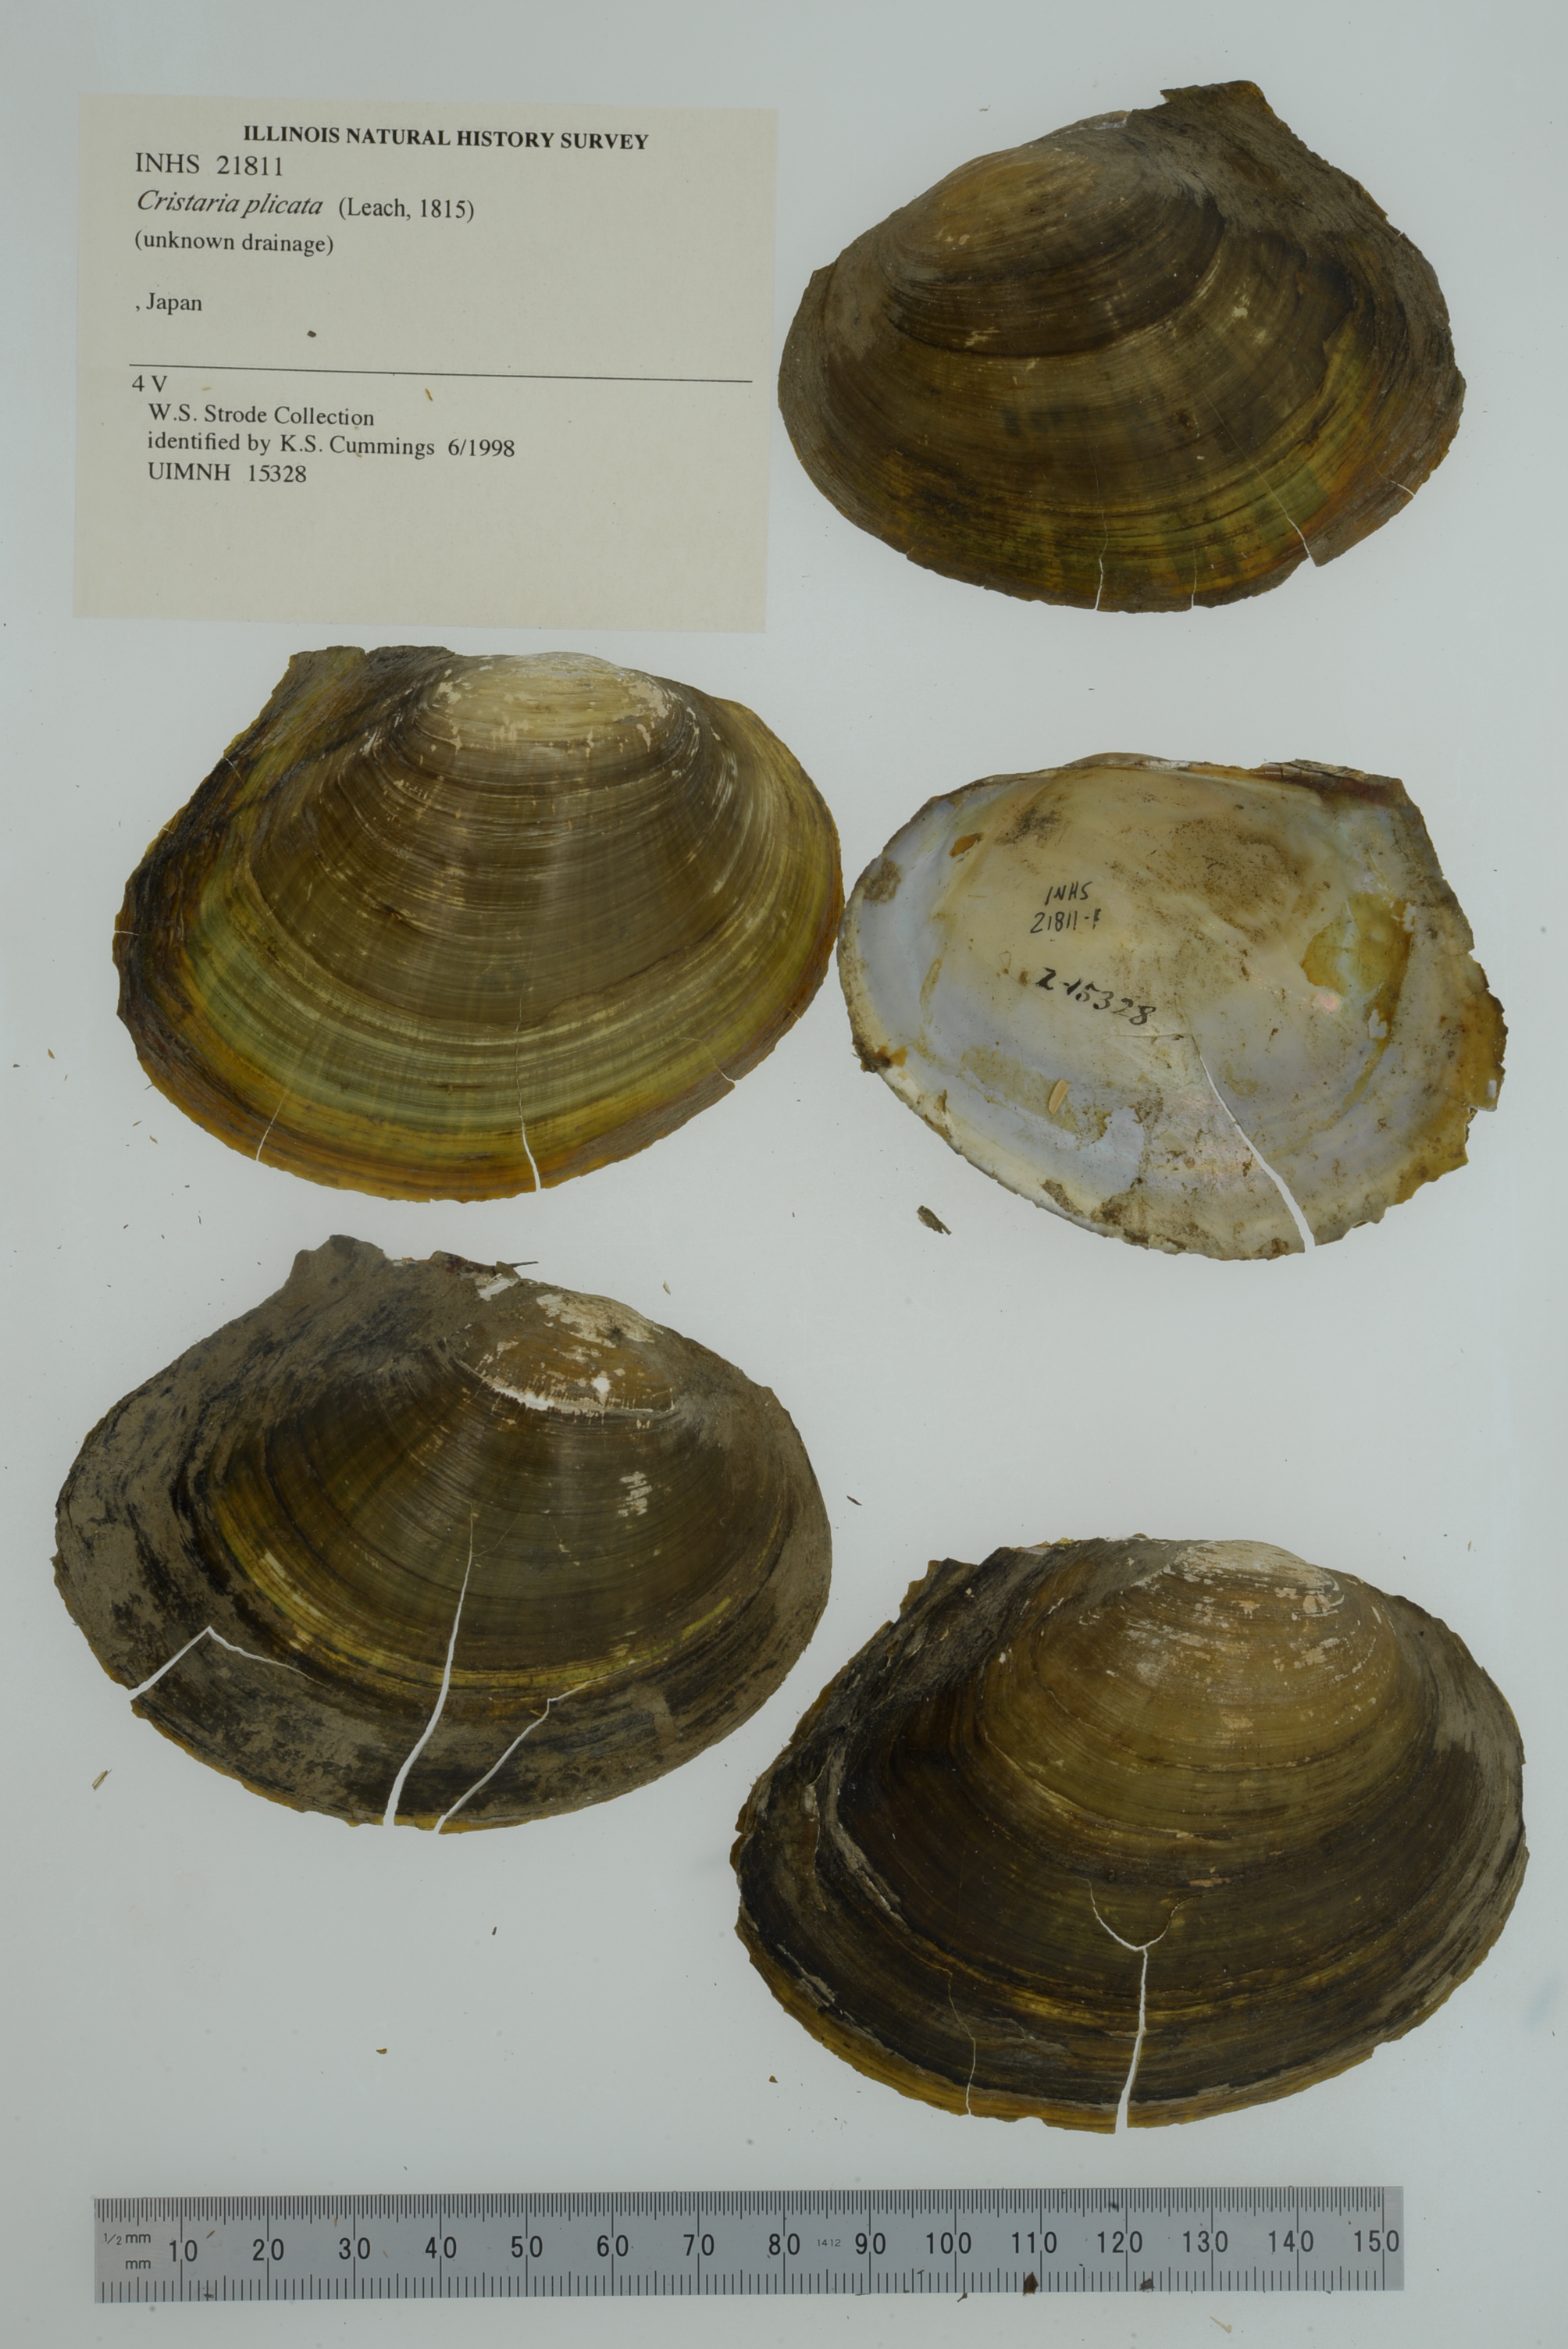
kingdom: Animalia
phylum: Mollusca
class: Bivalvia
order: Unionida
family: Unionidae
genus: Cristaria
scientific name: Cristaria plicata
